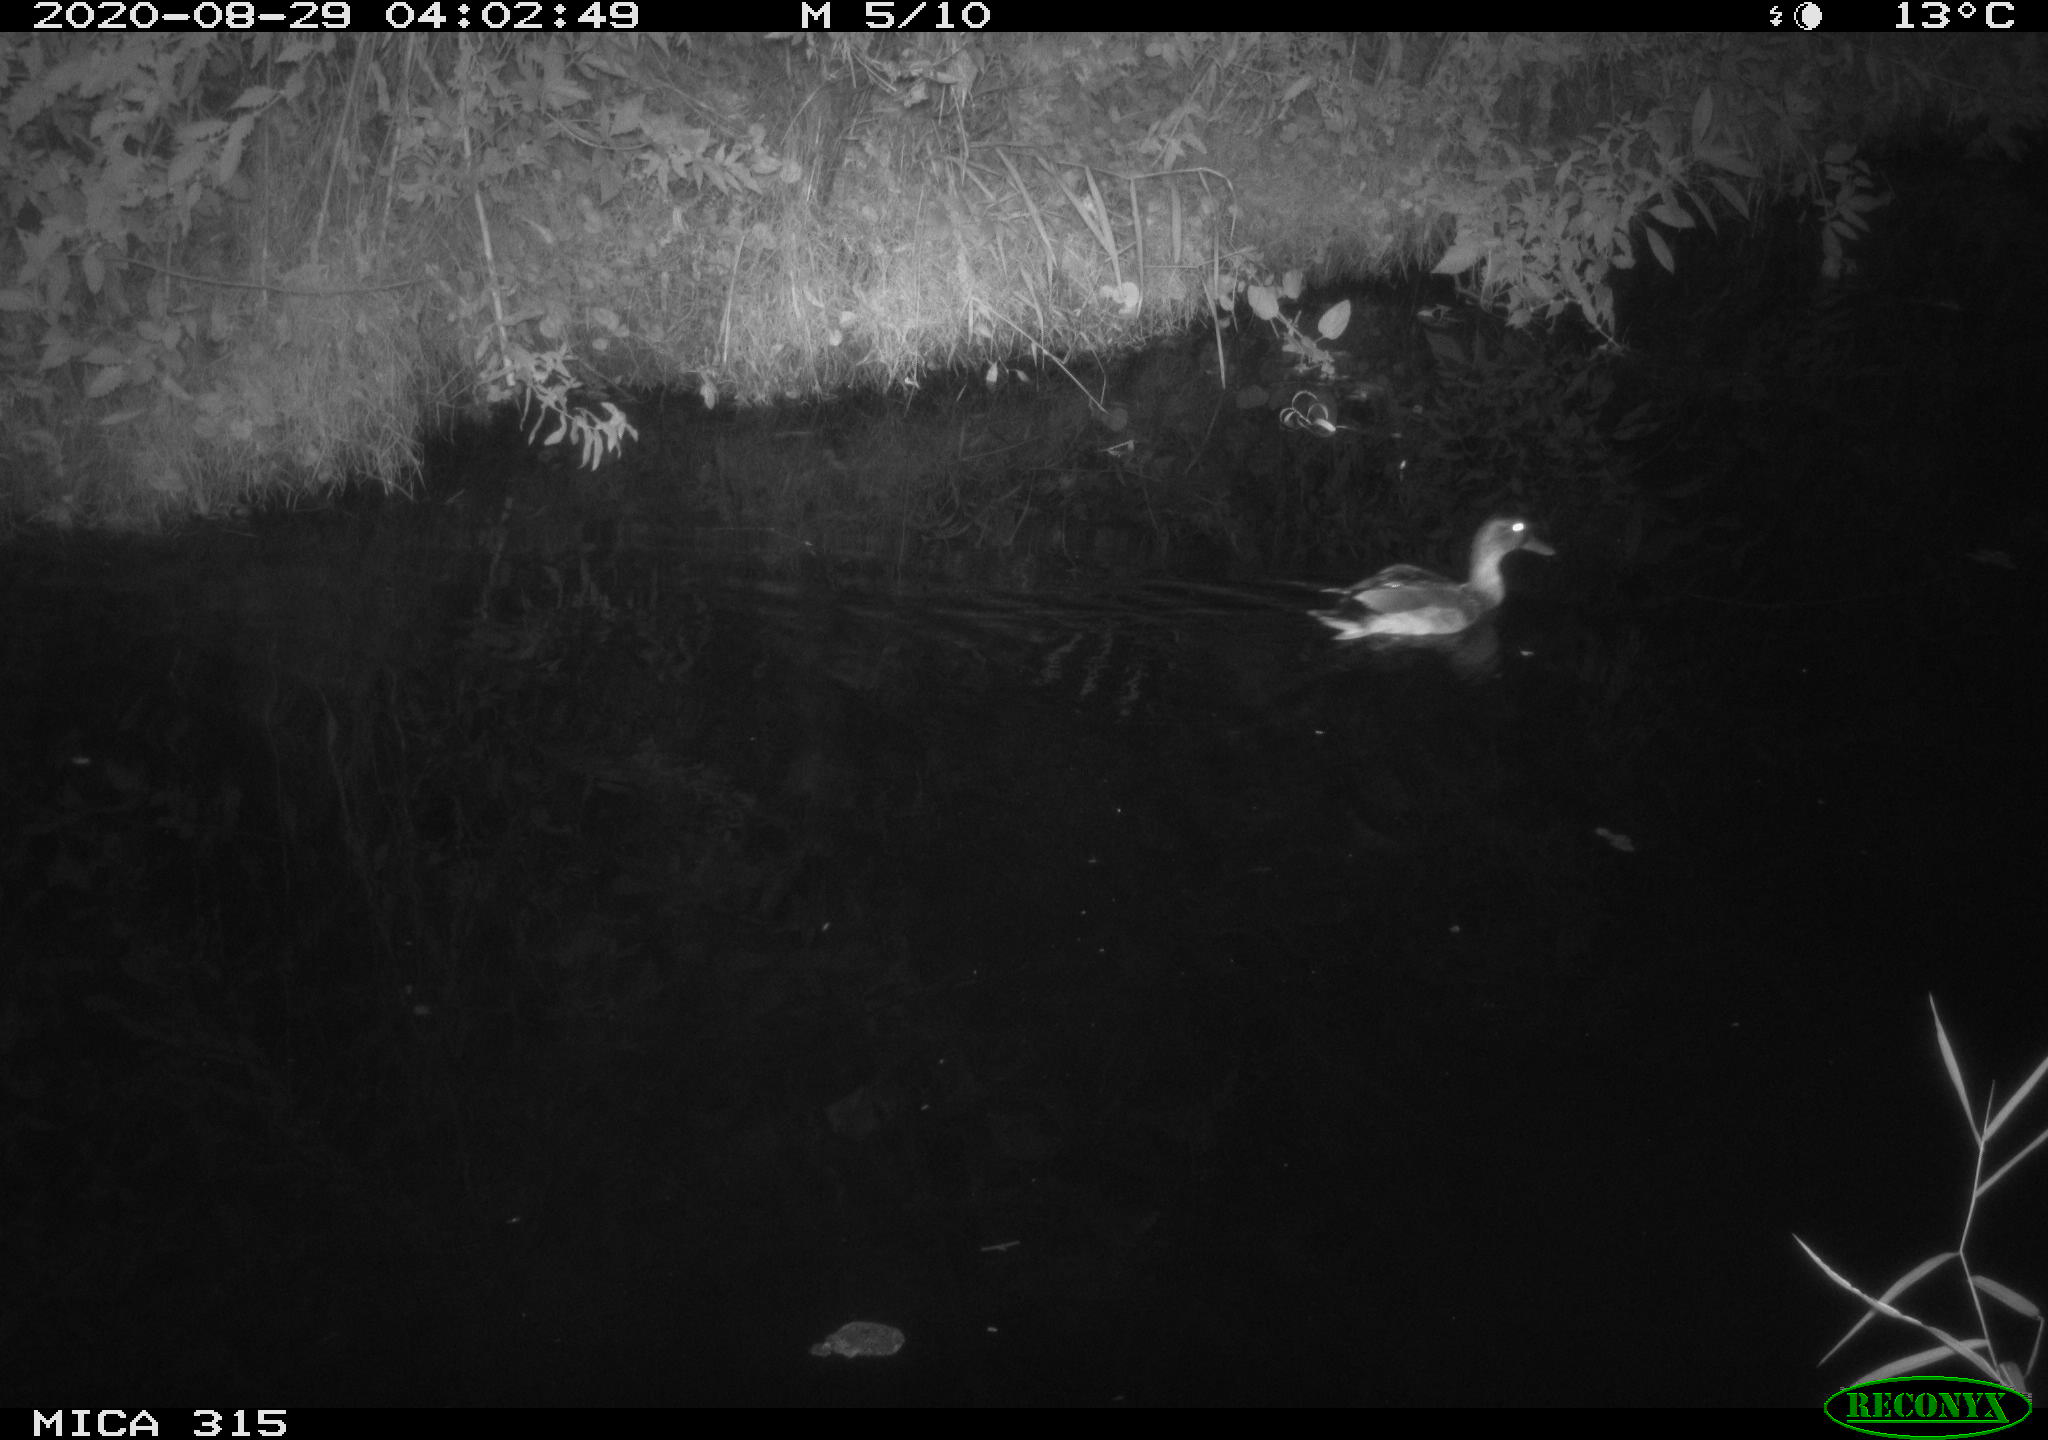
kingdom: Animalia
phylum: Chordata
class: Aves
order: Anseriformes
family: Anatidae
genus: Anas
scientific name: Anas platyrhynchos
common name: Mallard
